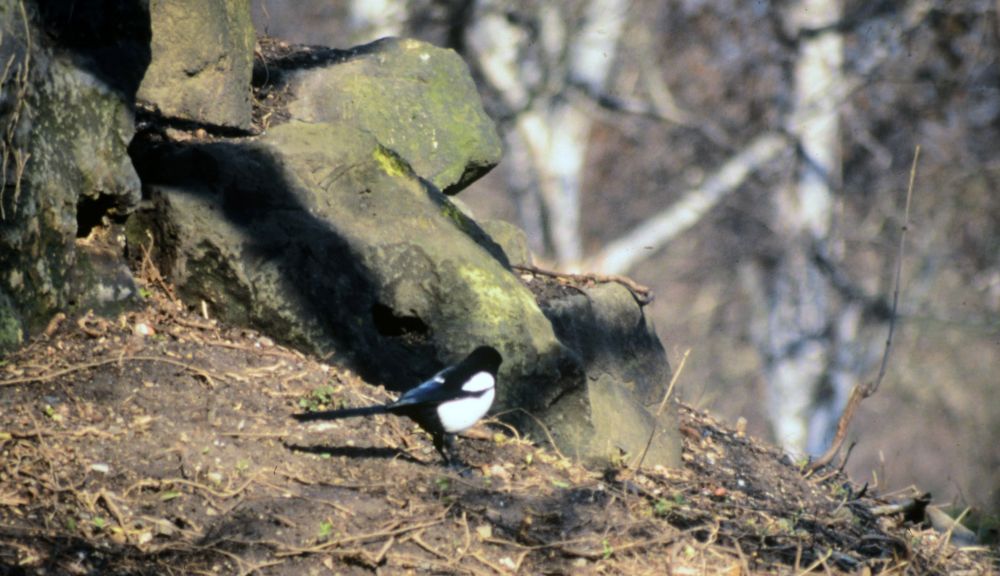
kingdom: Animalia
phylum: Chordata
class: Aves
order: Passeriformes
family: Corvidae
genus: Pica
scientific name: Pica pica
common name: Eurasian magpie
